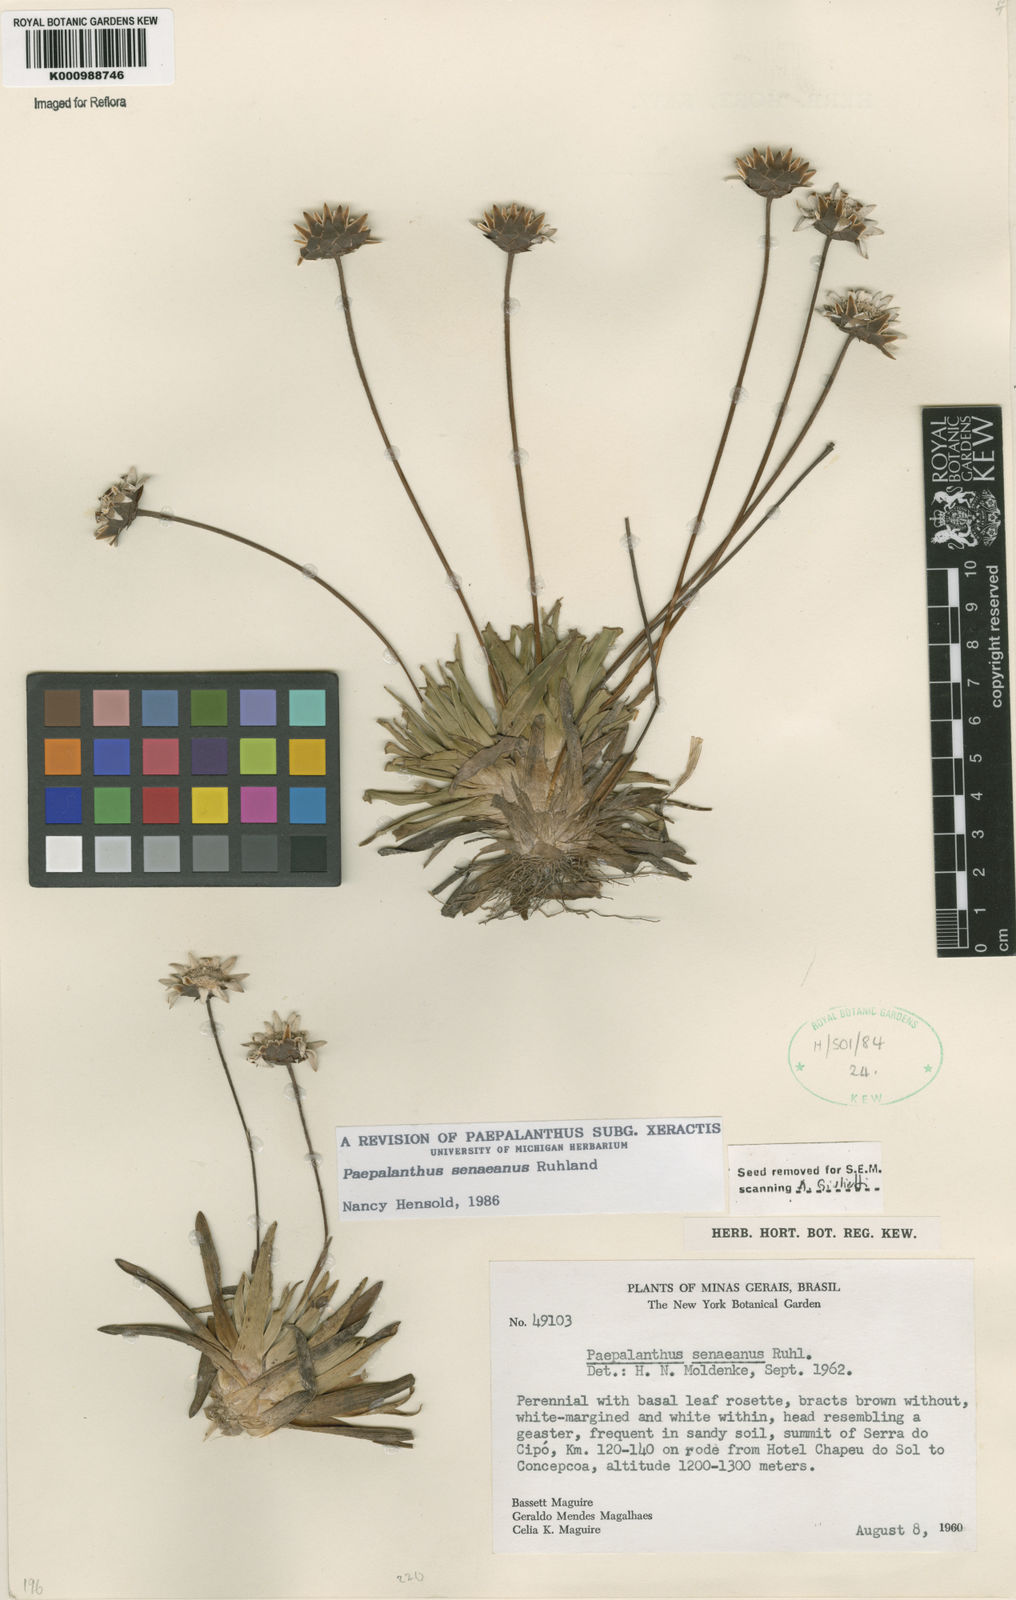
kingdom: Plantae
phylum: Tracheophyta
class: Liliopsida
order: Poales
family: Eriocaulaceae
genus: Paepalanthus
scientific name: Paepalanthus
